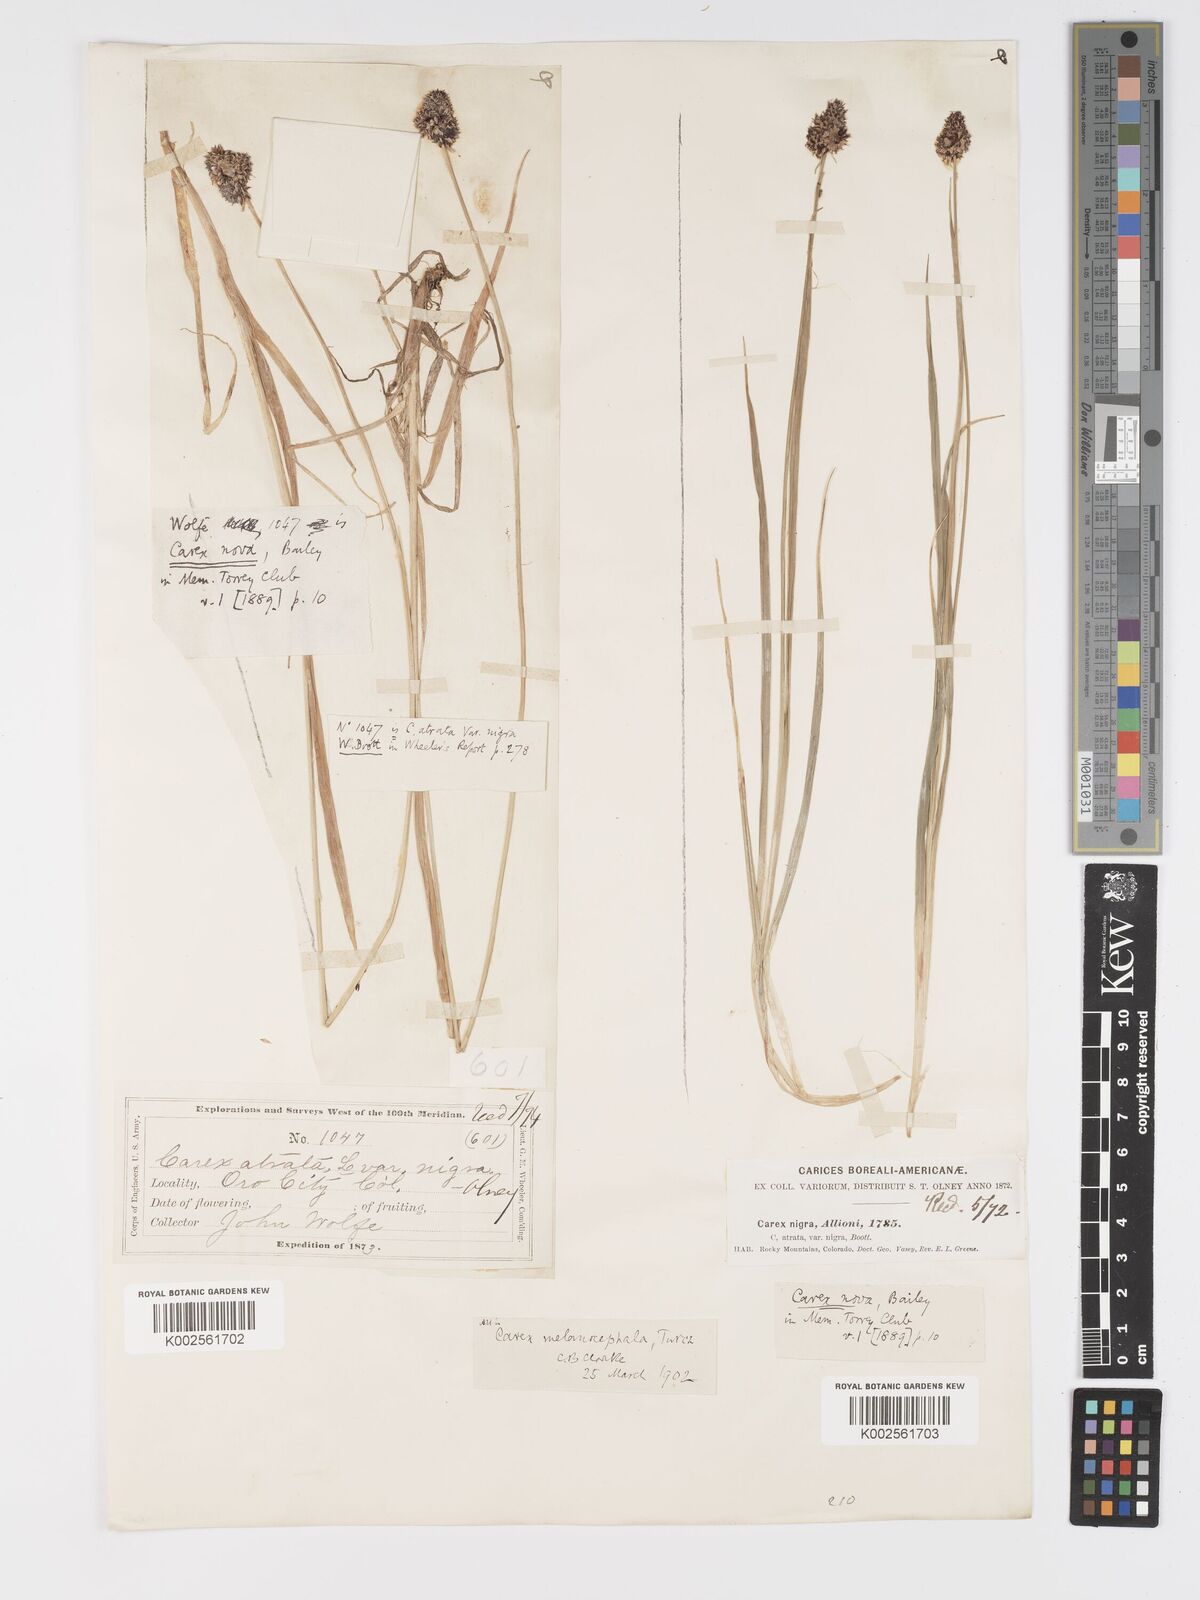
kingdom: Plantae
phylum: Tracheophyta
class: Liliopsida
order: Poales
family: Cyperaceae
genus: Carex
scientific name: Carex nova
